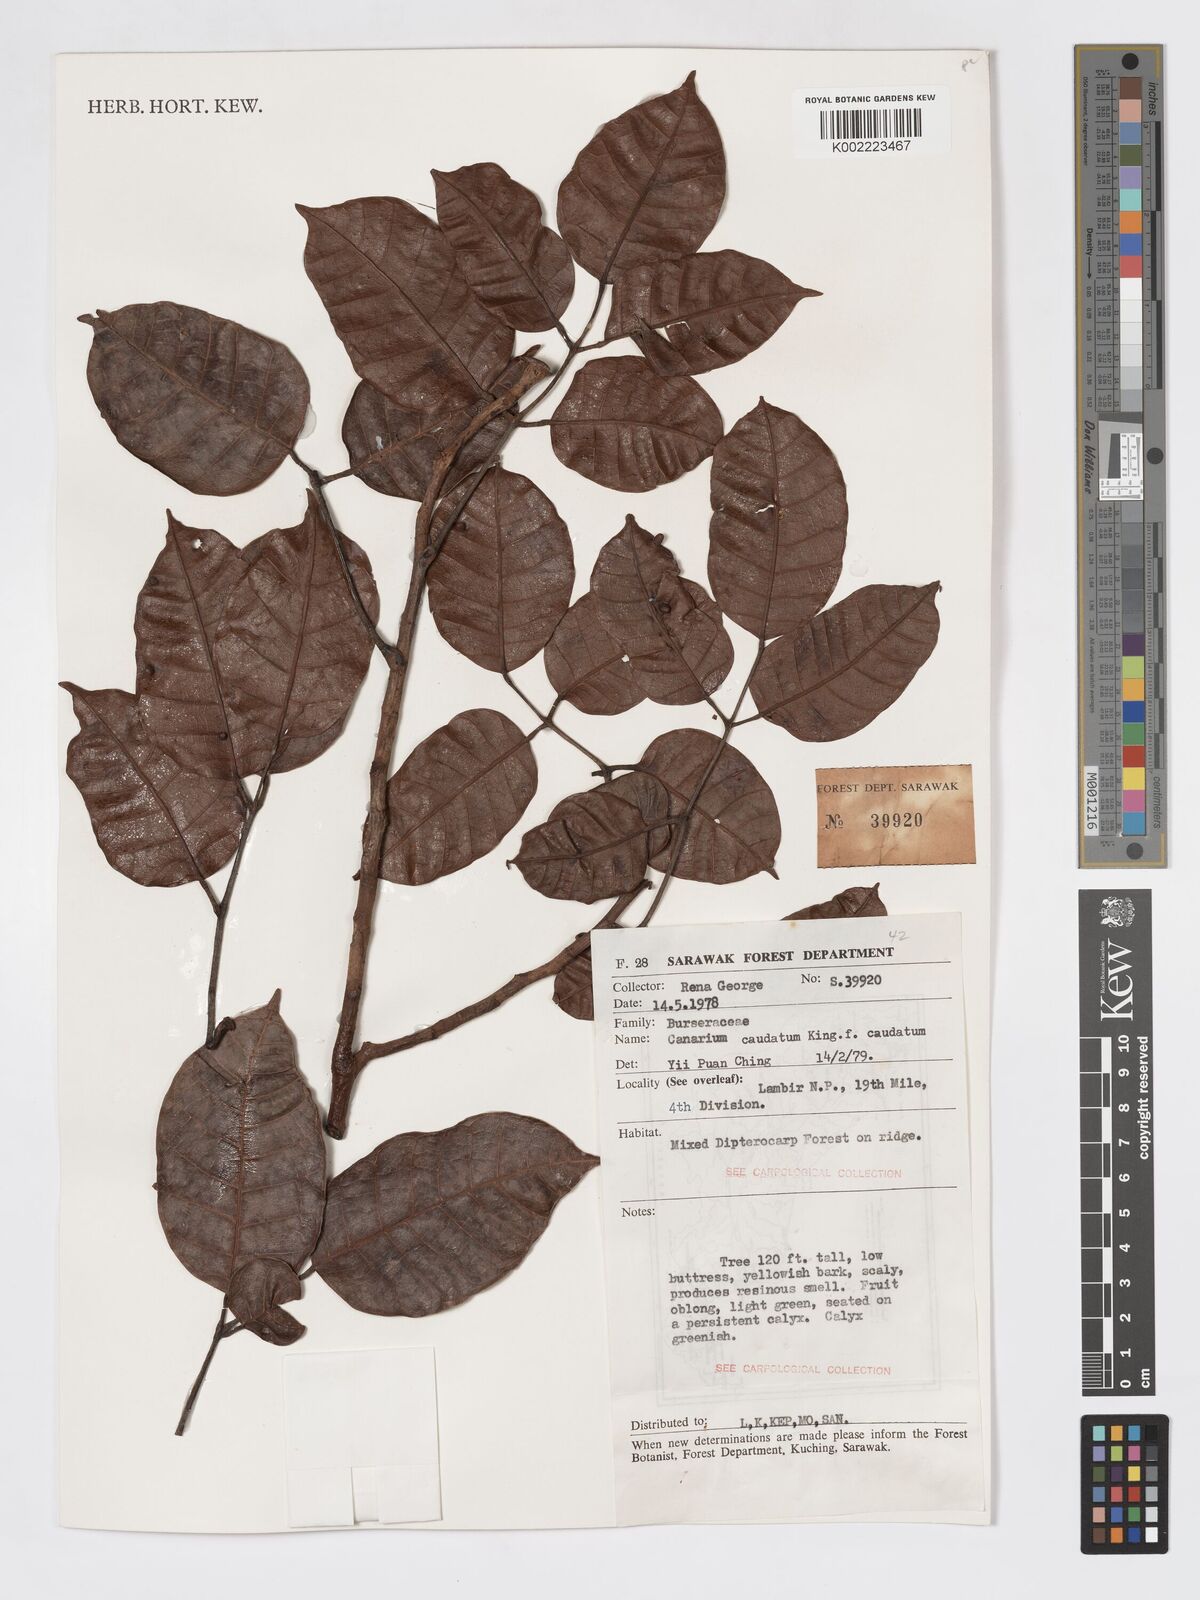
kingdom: Plantae
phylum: Tracheophyta
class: Magnoliopsida
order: Sapindales
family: Burseraceae
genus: Canarium
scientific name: Canarium caudatum
